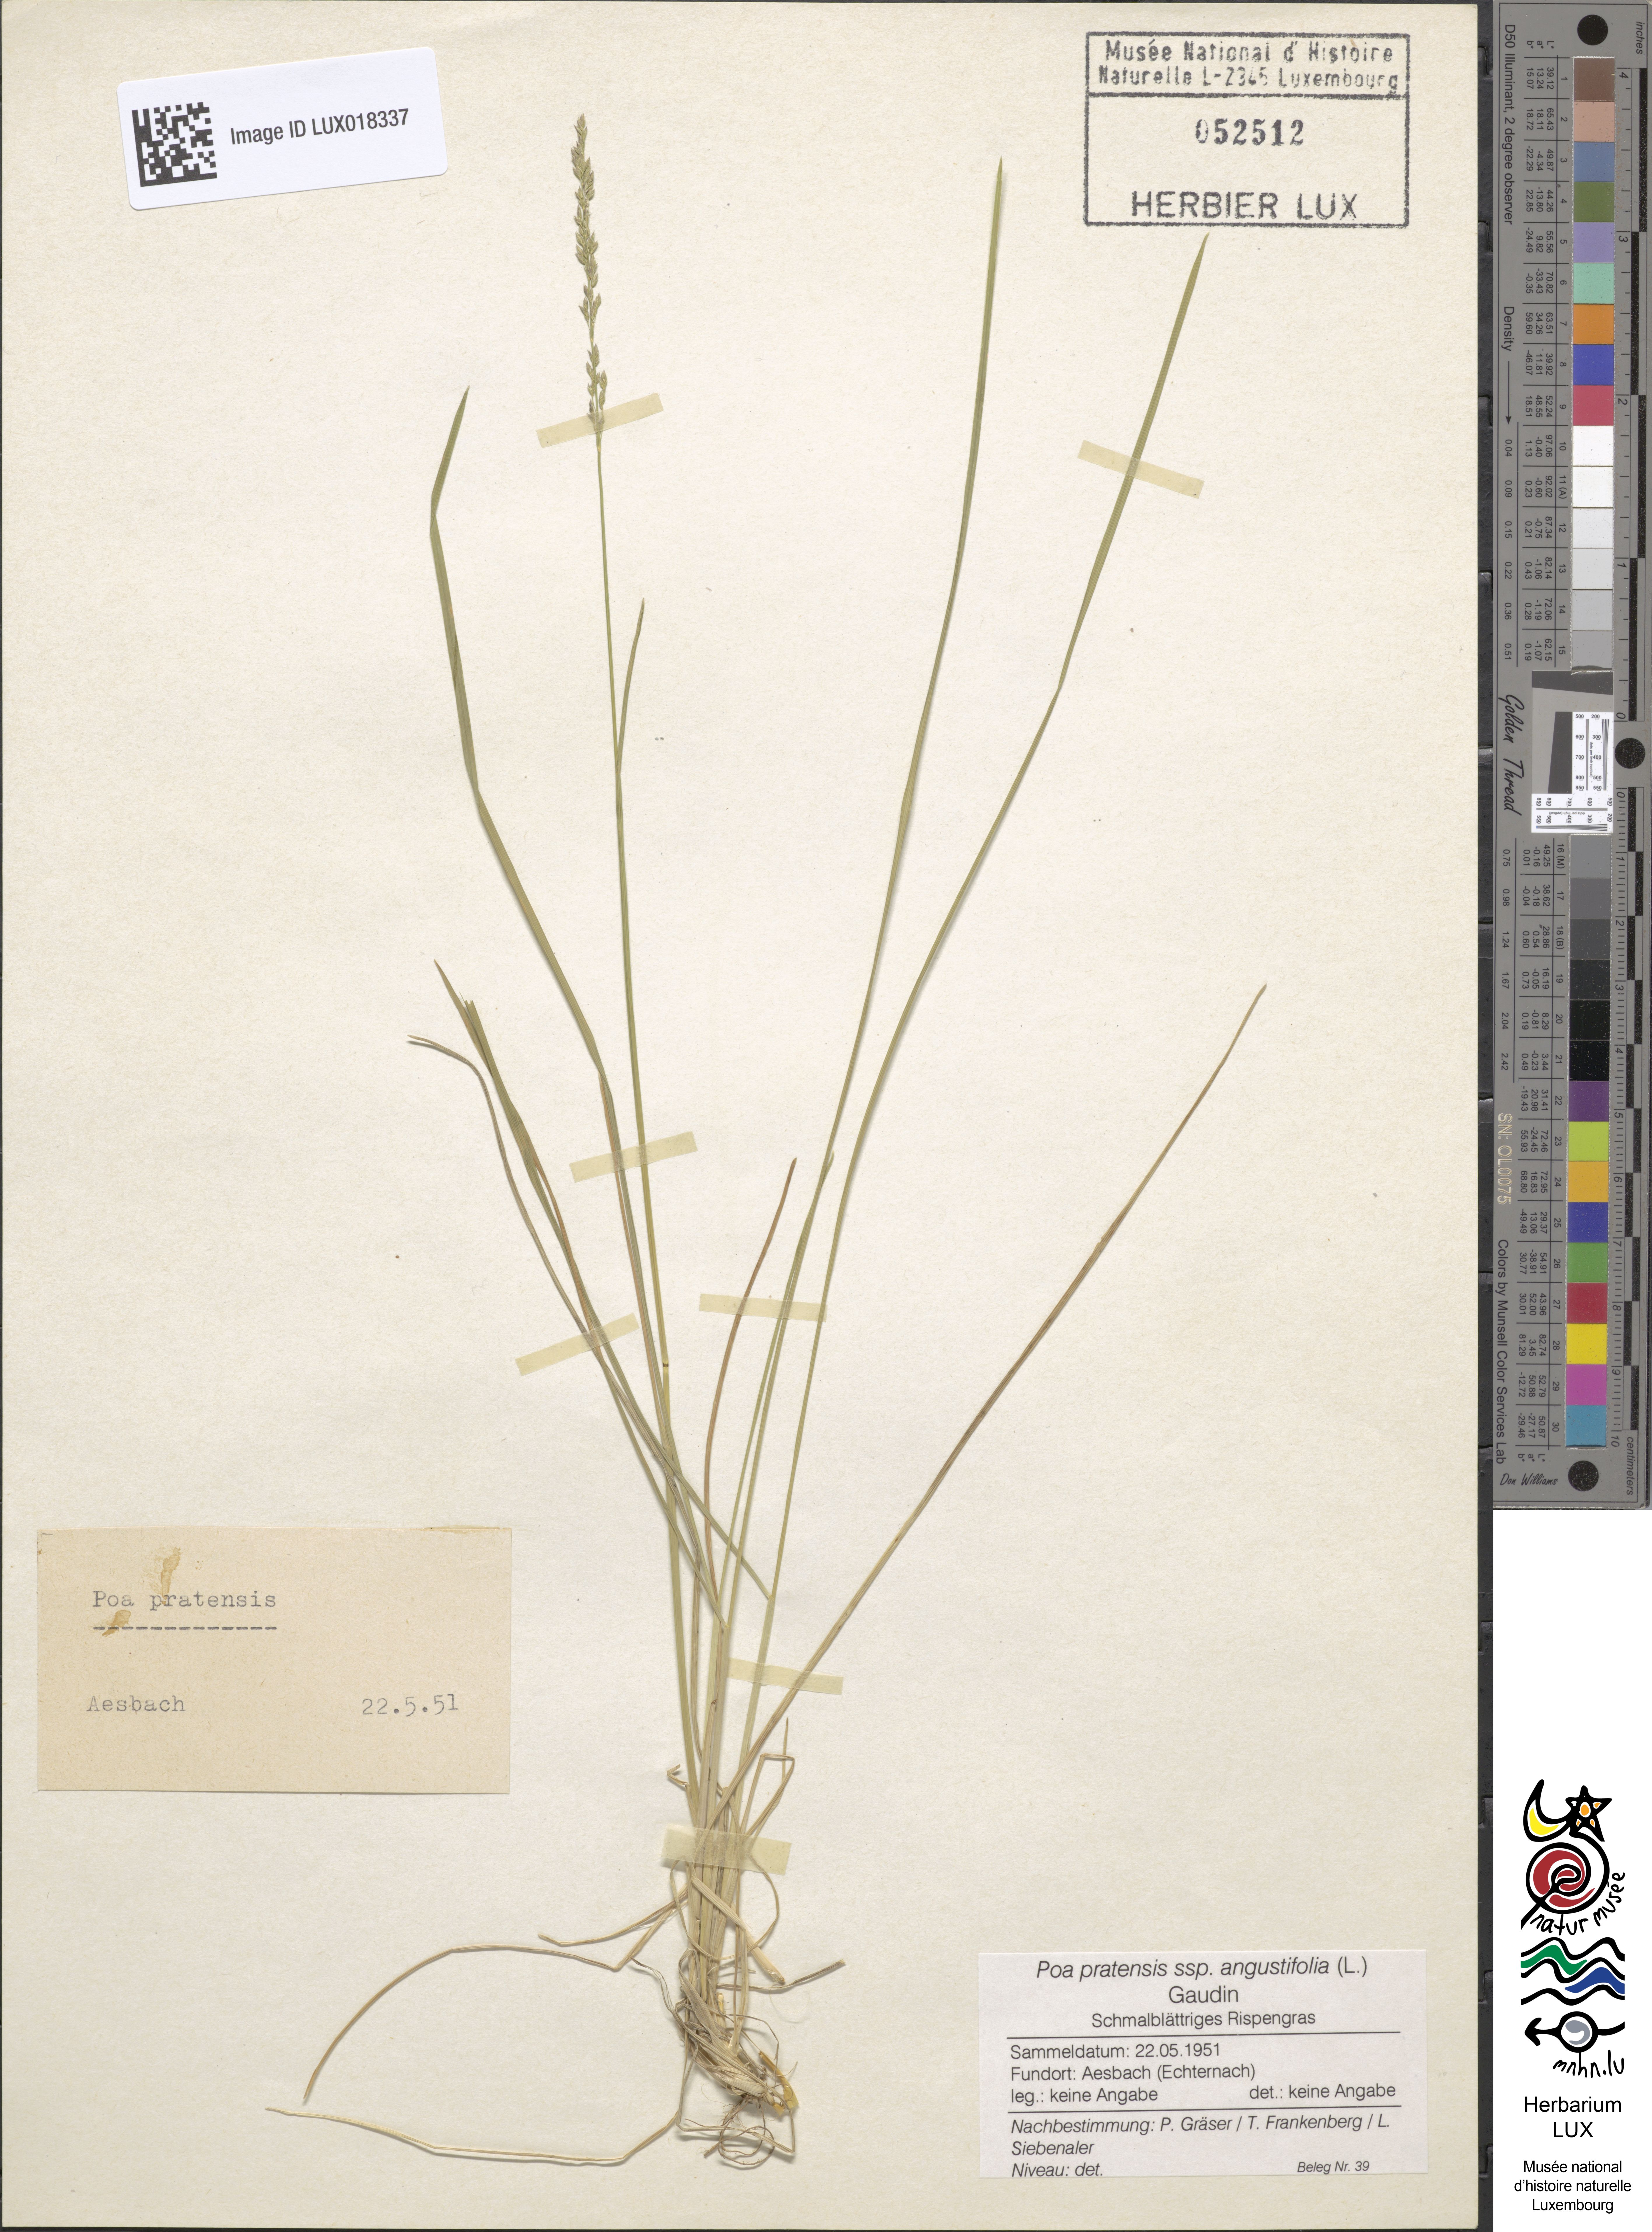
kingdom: Plantae
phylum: Tracheophyta
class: Liliopsida
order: Poales
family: Poaceae
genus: Poa
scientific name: Poa angustifolia
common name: Narrow-leaved meadow-grass
